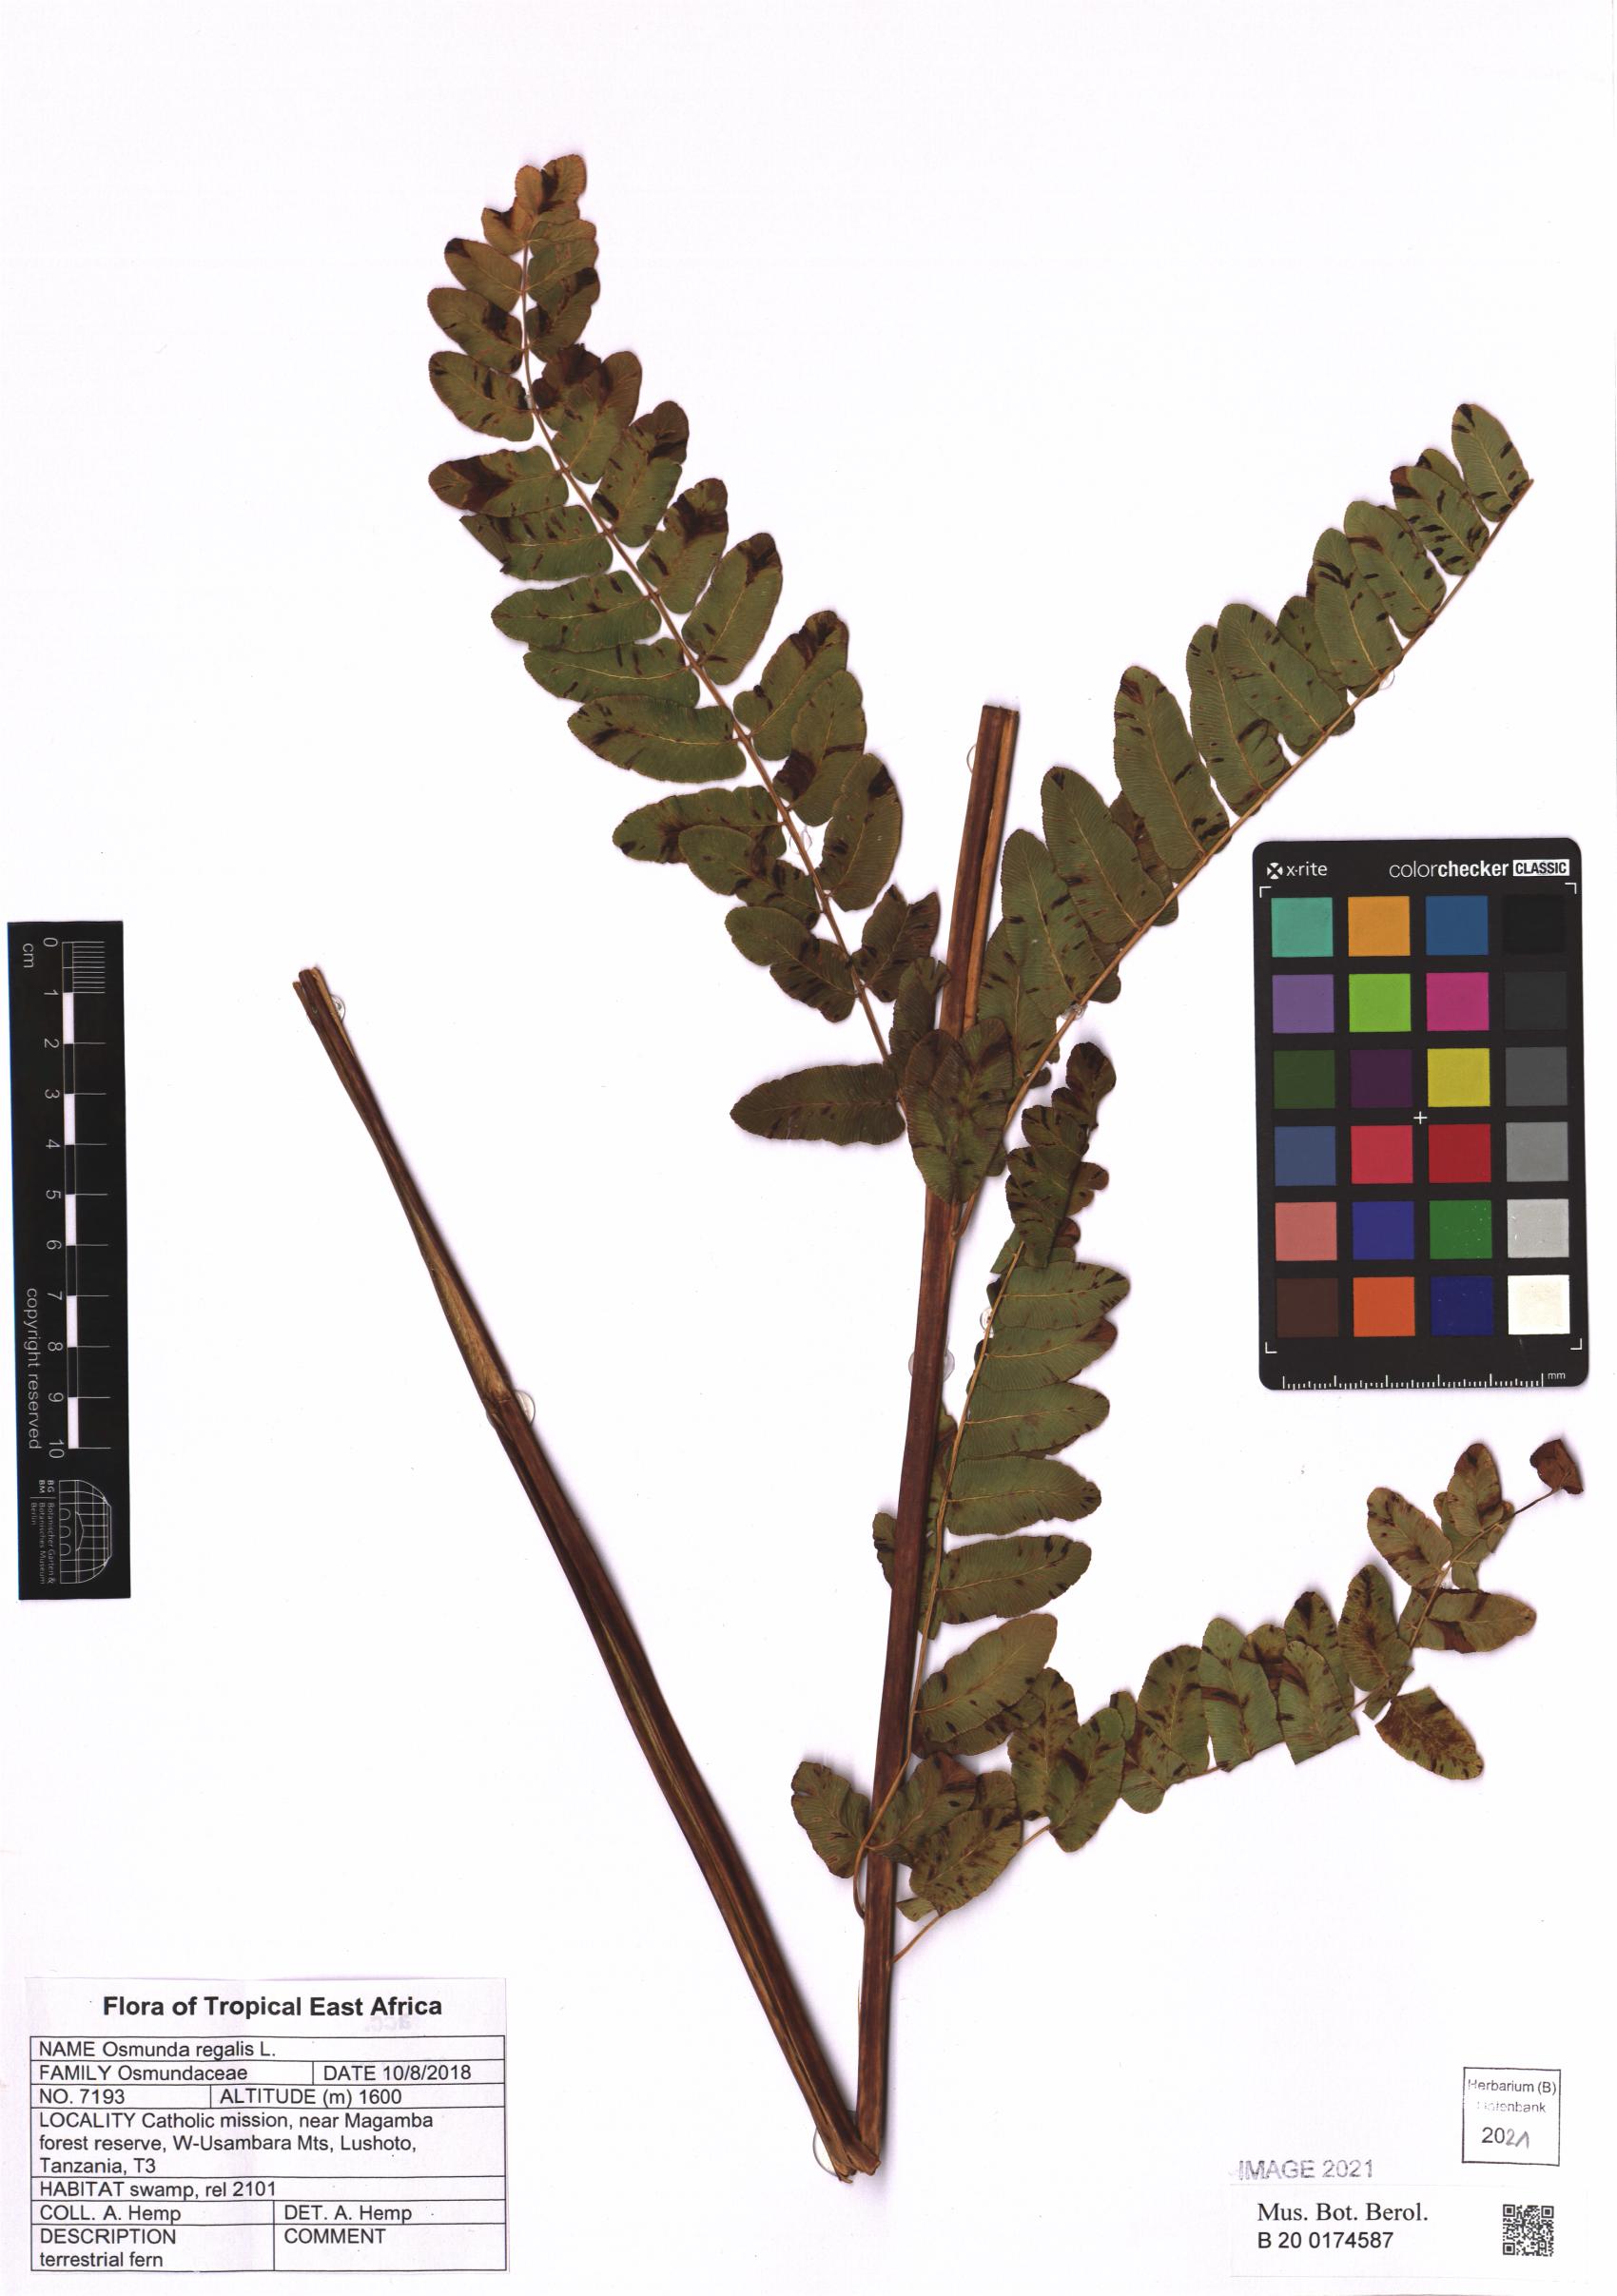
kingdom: Plantae
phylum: Tracheophyta
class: Polypodiopsida
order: Osmundales
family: Osmundaceae
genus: Osmunda
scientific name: Osmunda regalis
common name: Royal fern
